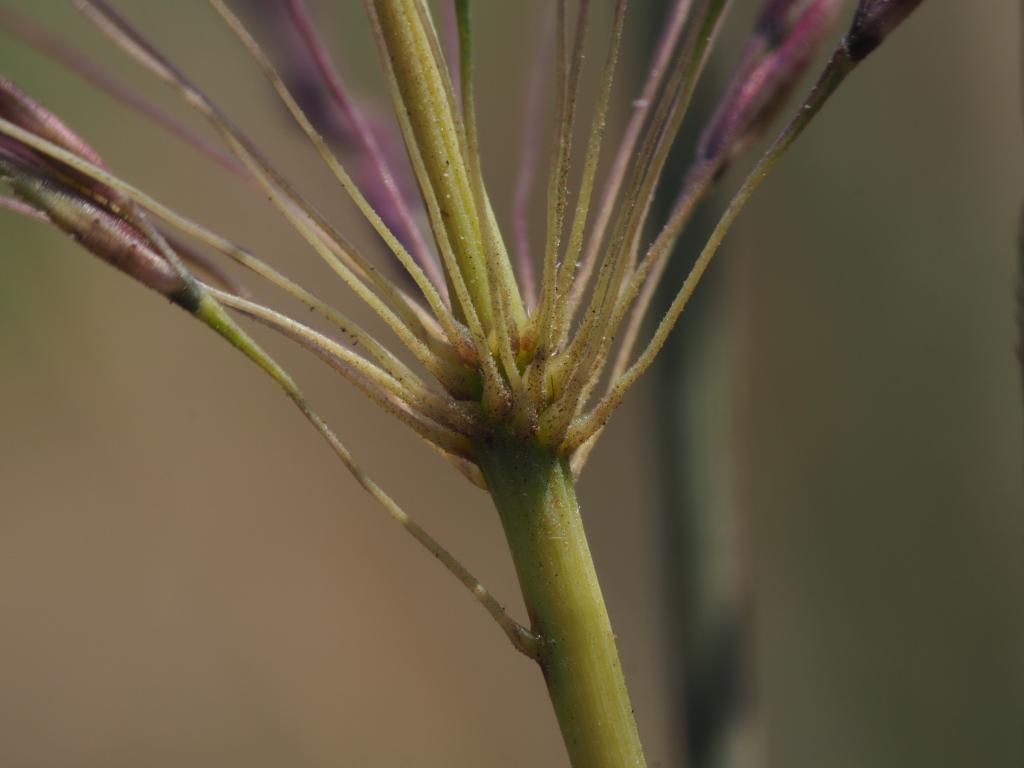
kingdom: Plantae
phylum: Tracheophyta
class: Liliopsida
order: Poales
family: Poaceae
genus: Chrysopogon
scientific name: Chrysopogon zizanioides
